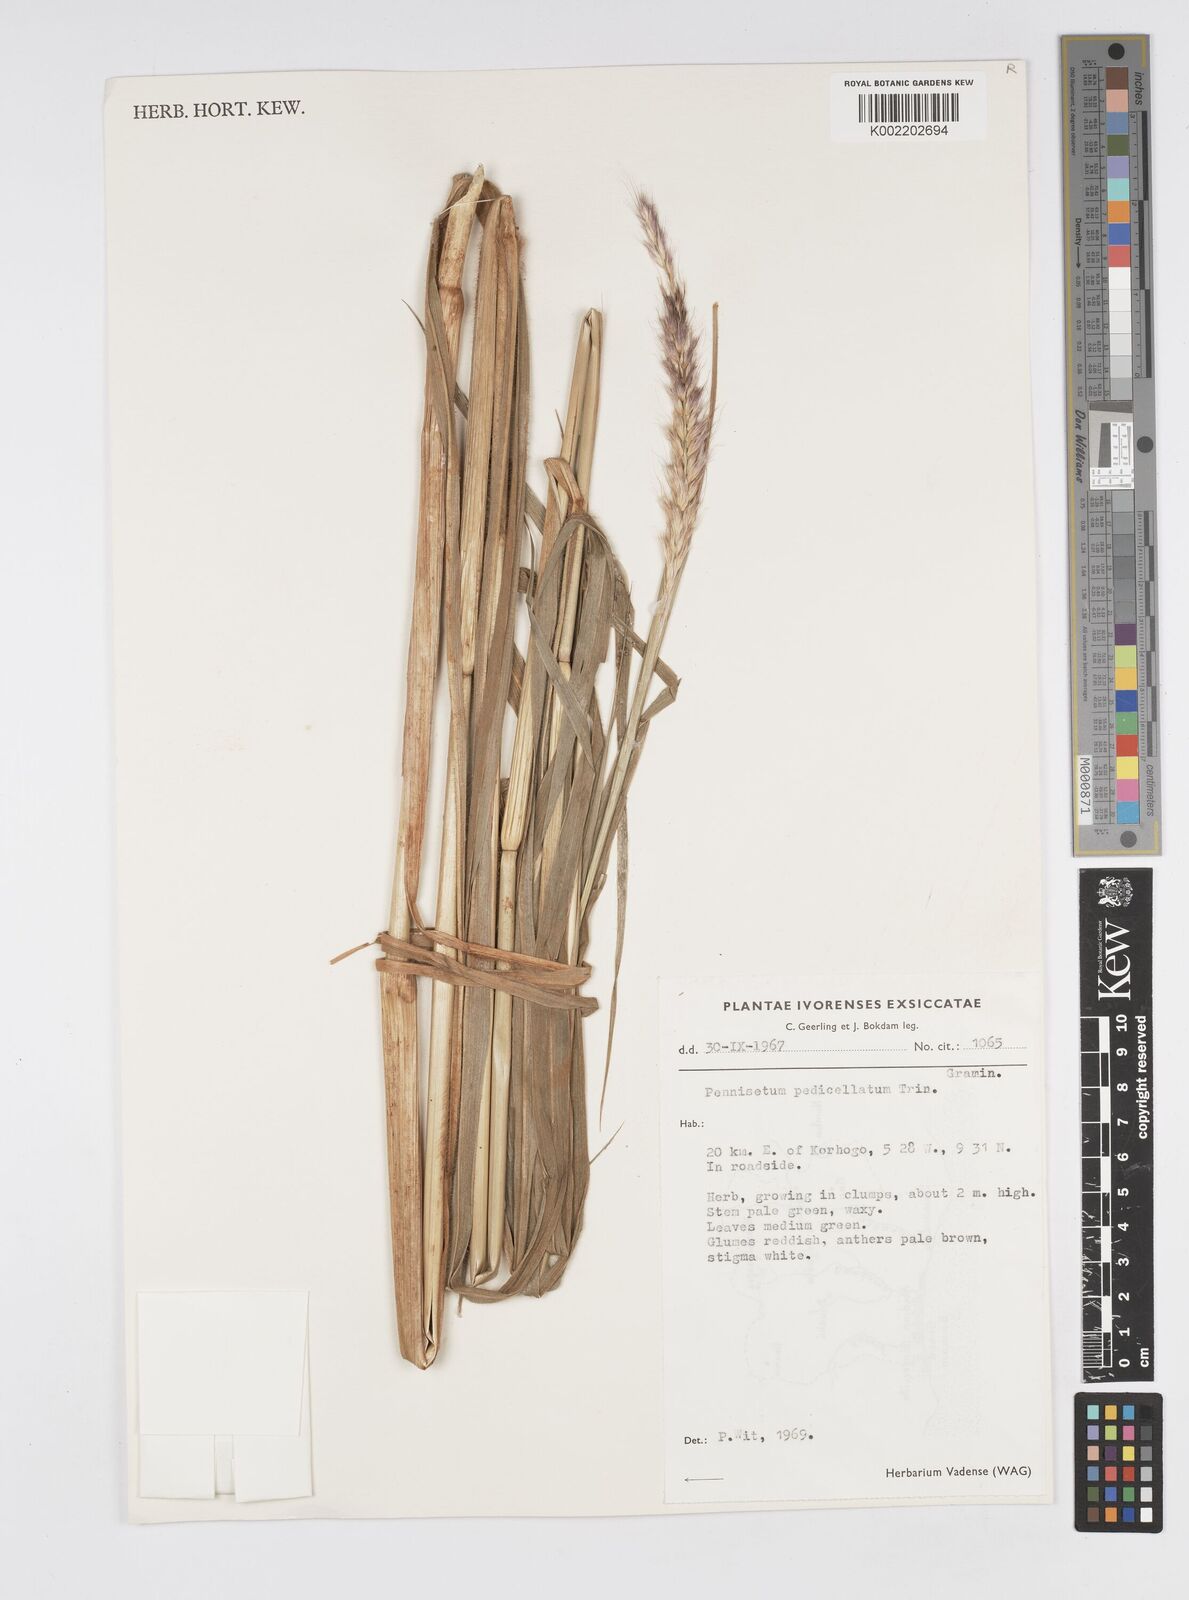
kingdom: Plantae
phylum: Tracheophyta
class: Liliopsida
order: Poales
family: Poaceae
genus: Cenchrus
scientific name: Cenchrus pedicellatus
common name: Hairy fountain grass
